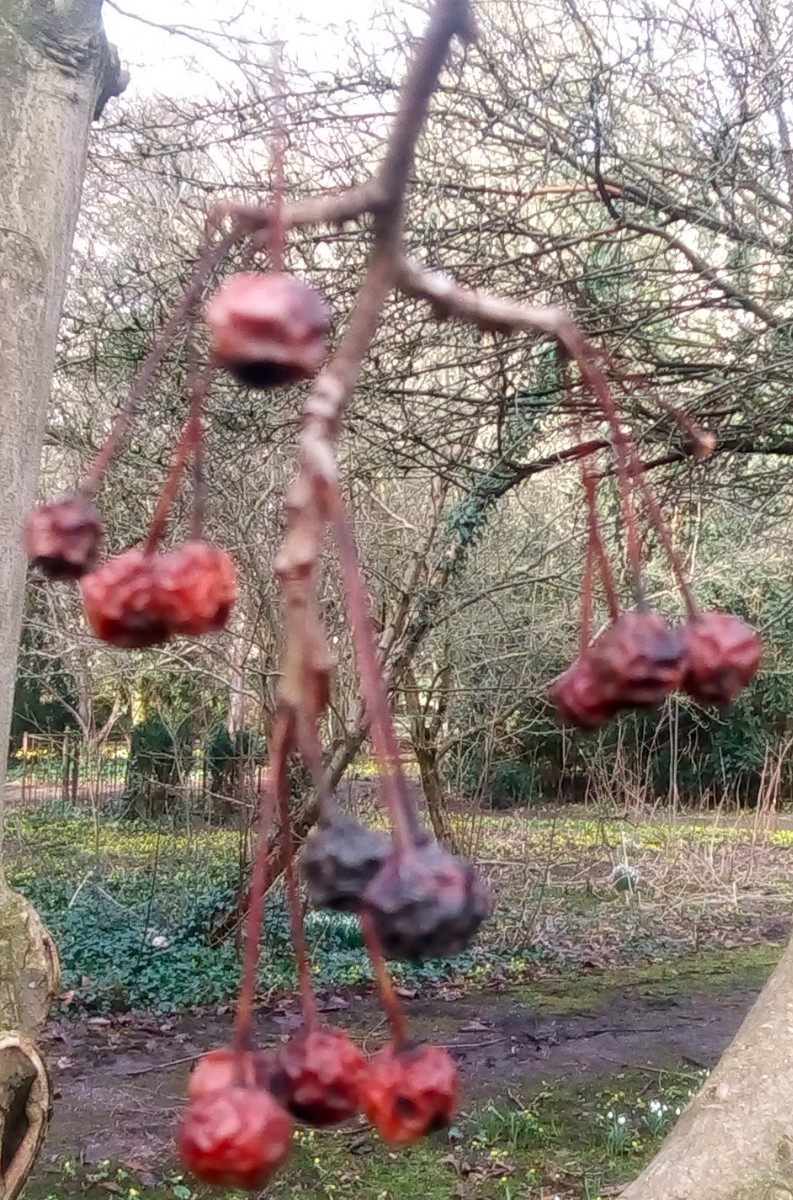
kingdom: Fungi
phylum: Ascomycota
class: Leotiomycetes
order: Helotiales
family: Lachnaceae
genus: Lachnum
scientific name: Lachnum brevipilosum
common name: korthåret frynseskive
